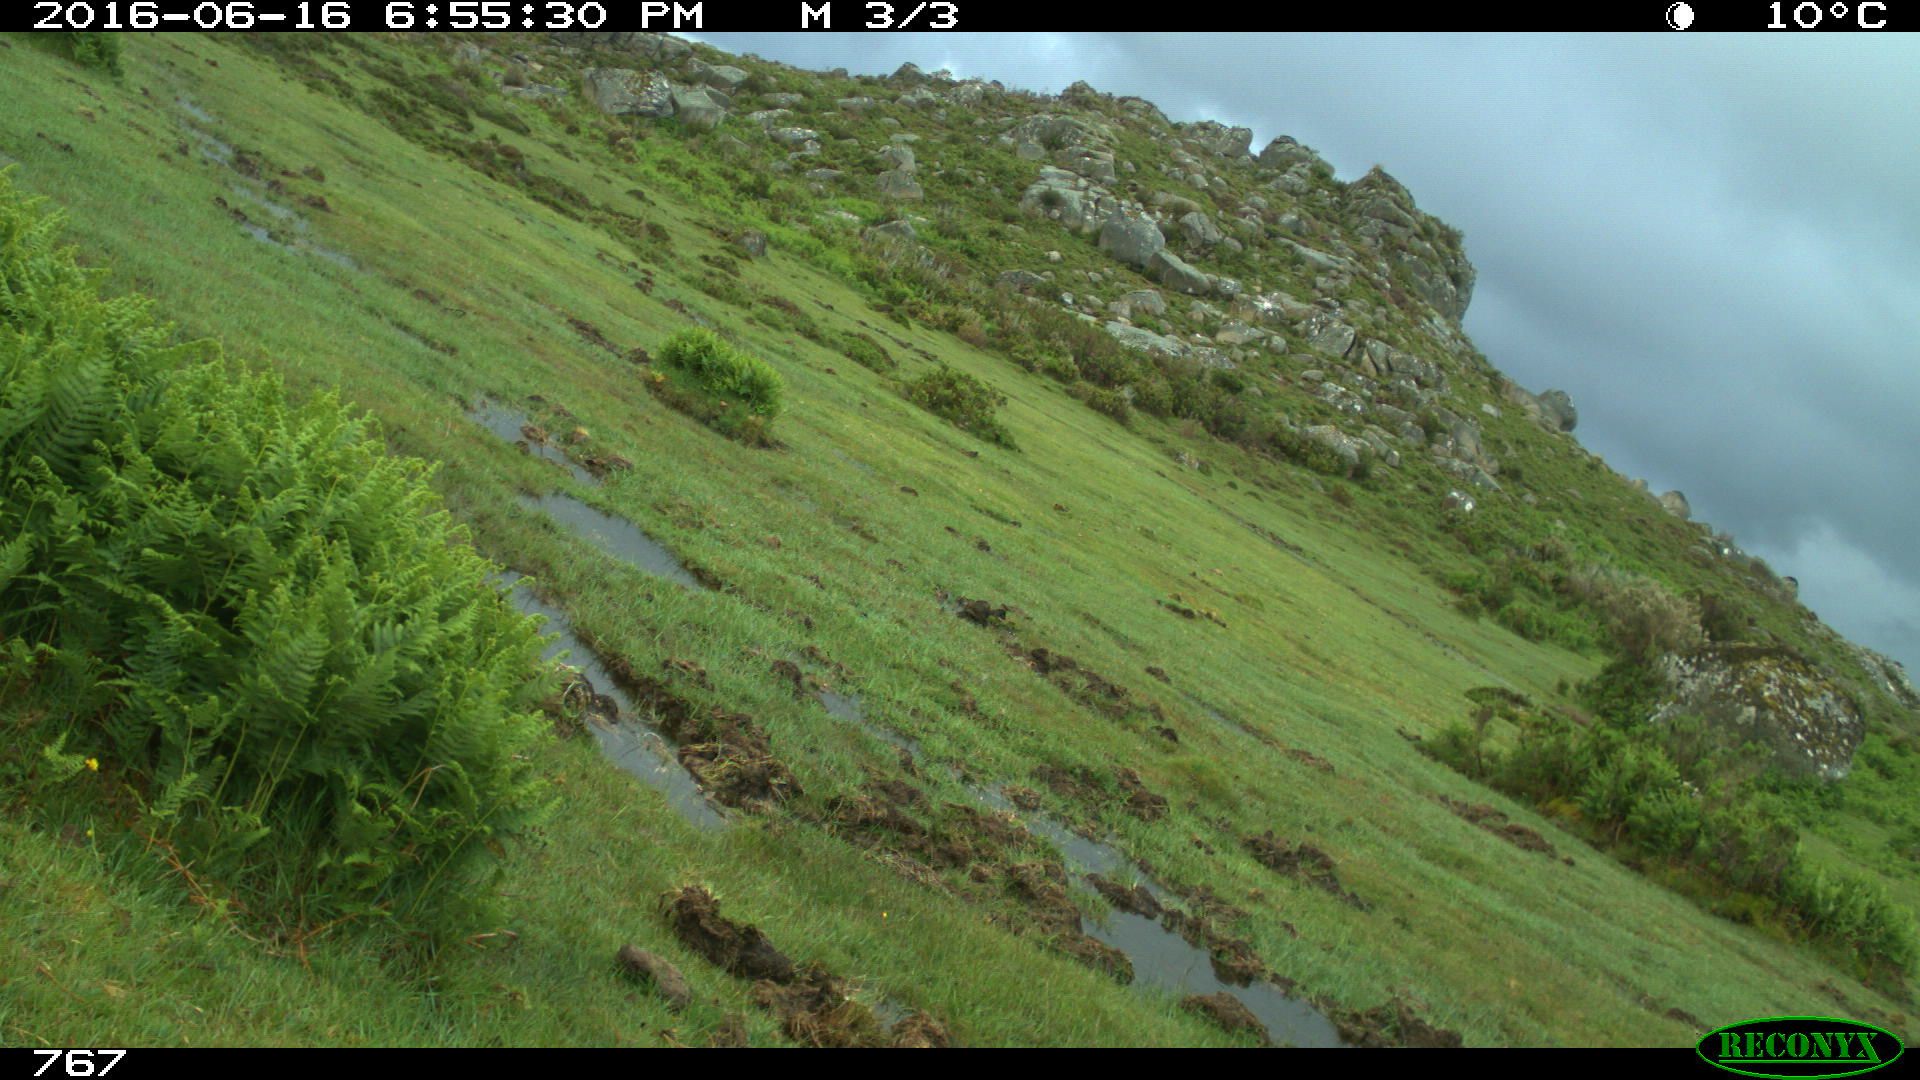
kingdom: Animalia
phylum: Chordata
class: Mammalia
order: Perissodactyla
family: Equidae
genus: Equus
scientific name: Equus caballus
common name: Horse
